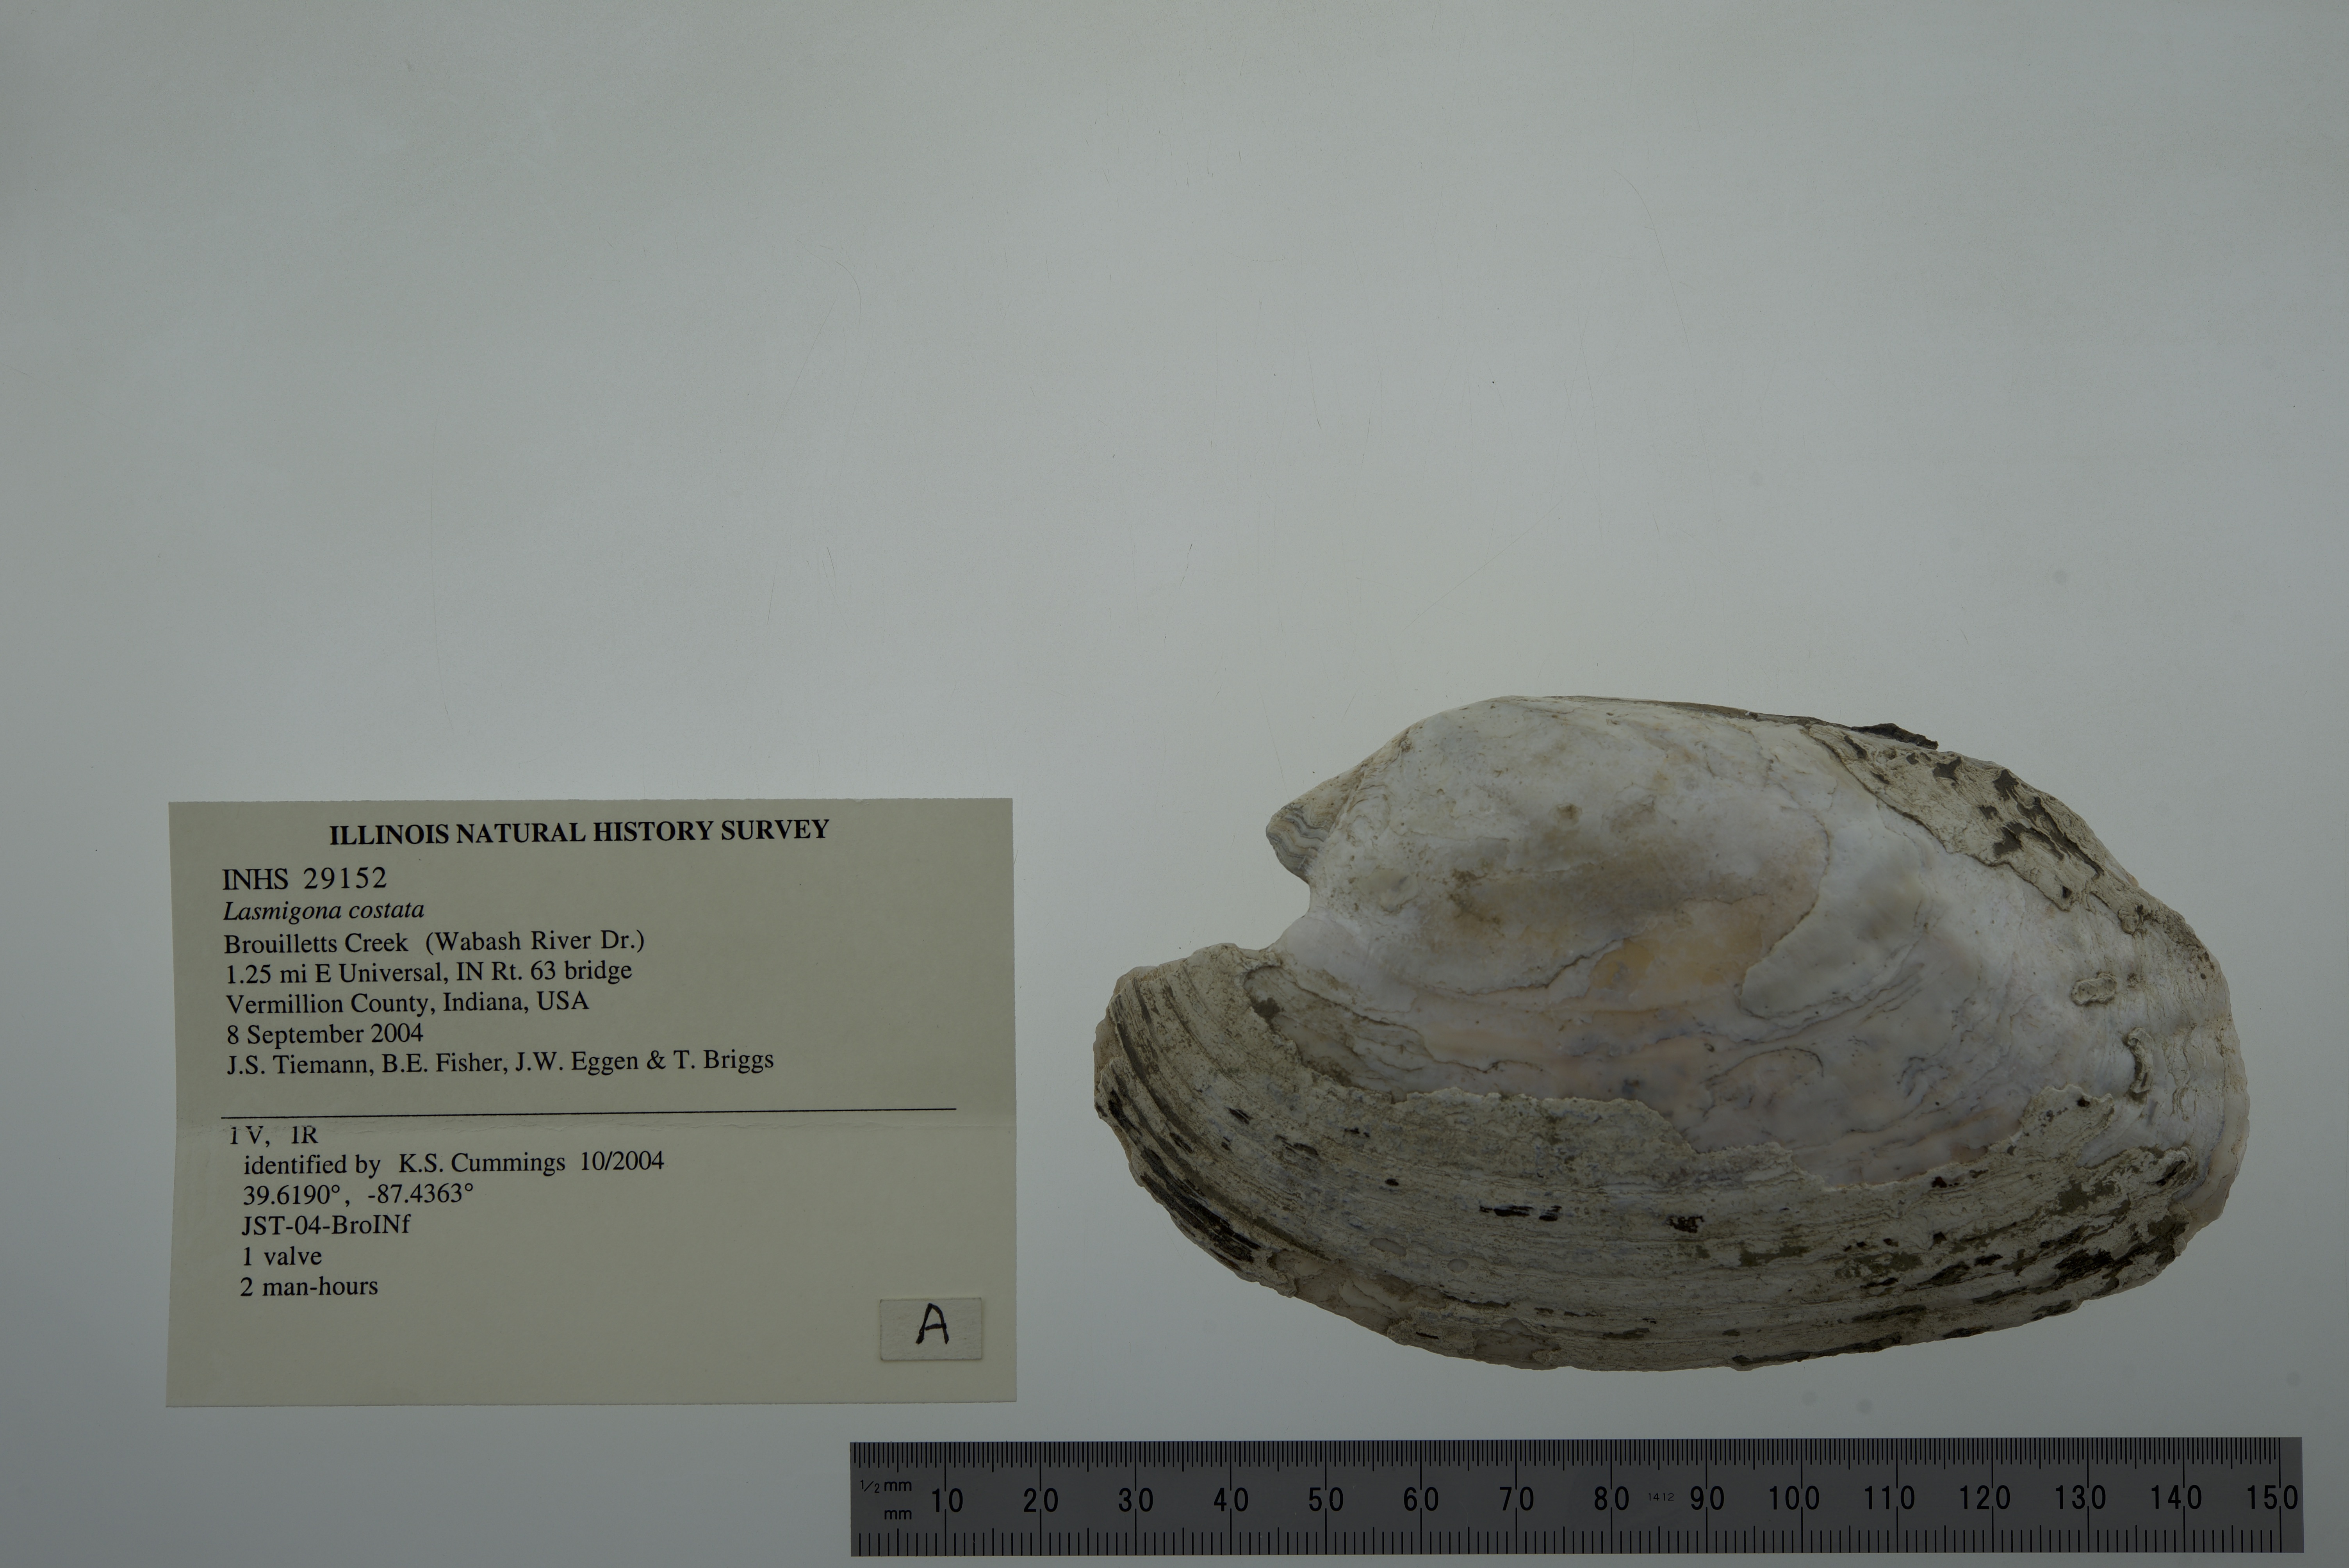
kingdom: Animalia
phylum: Mollusca
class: Bivalvia
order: Unionida
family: Unionidae
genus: Lasmigona
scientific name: Lasmigona costata
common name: Flutedshell
